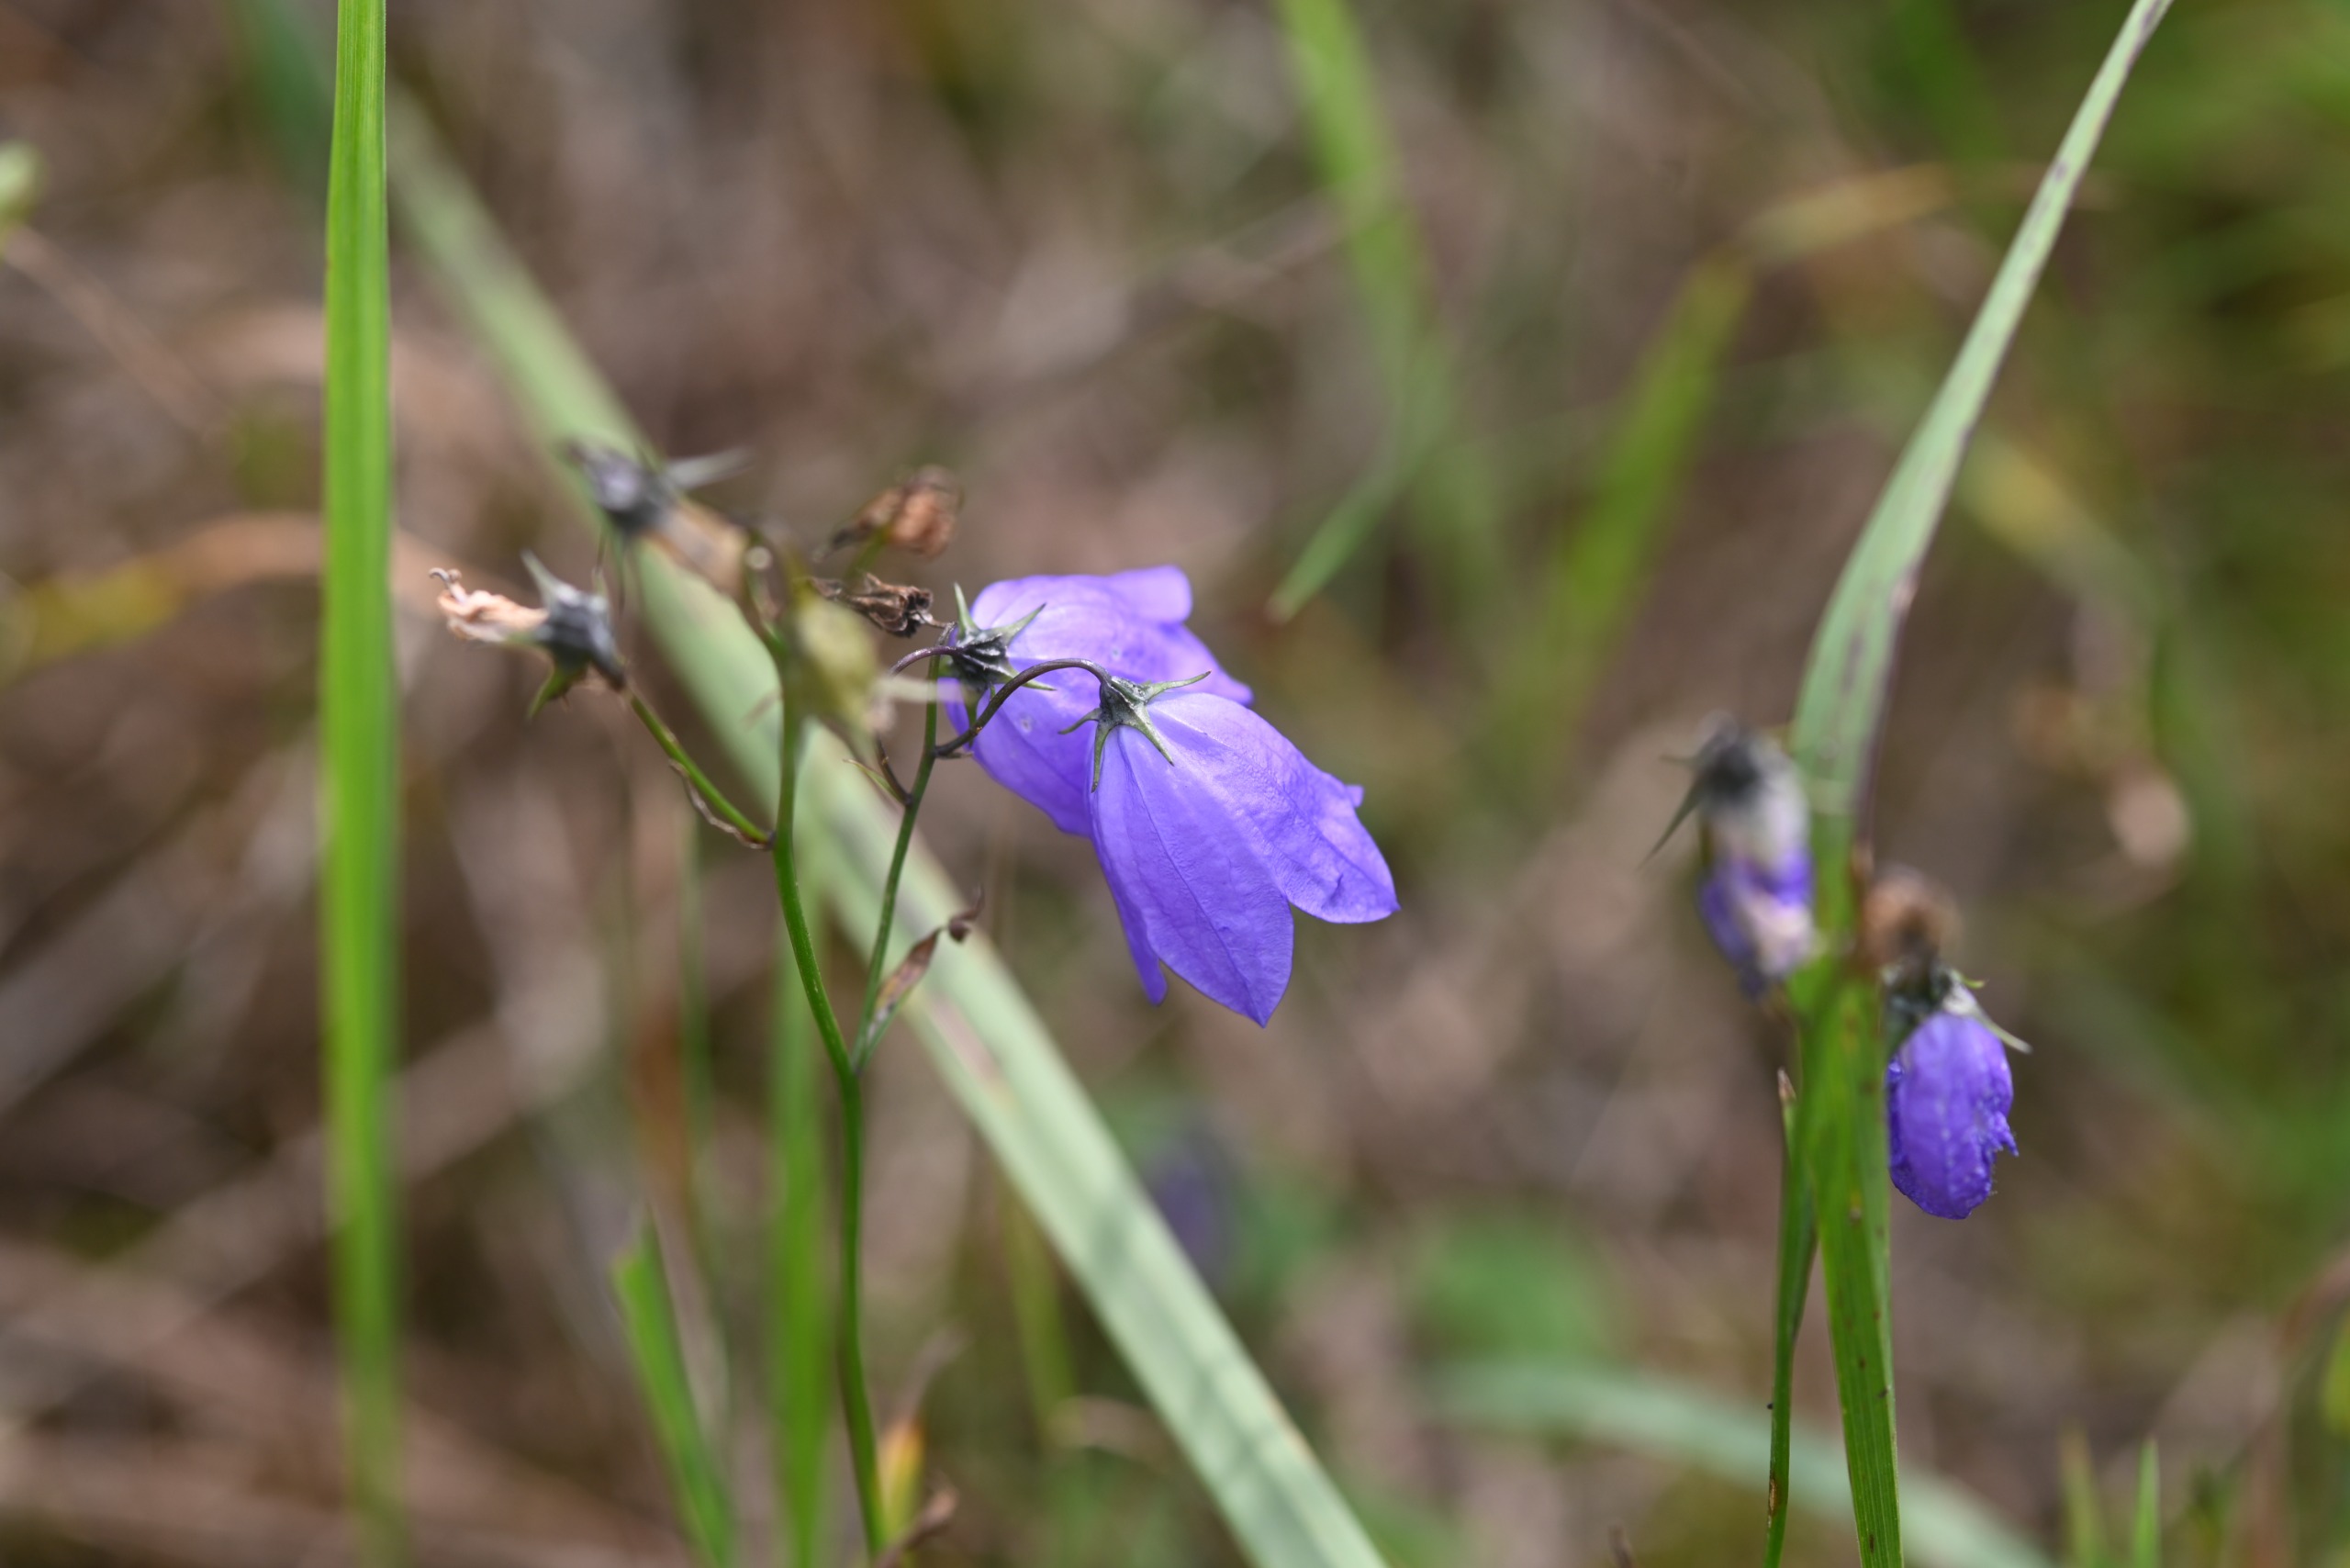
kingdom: Plantae
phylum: Tracheophyta
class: Magnoliopsida
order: Asterales
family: Campanulaceae
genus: Campanula
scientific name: Campanula rotundifolia
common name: Liden klokke
